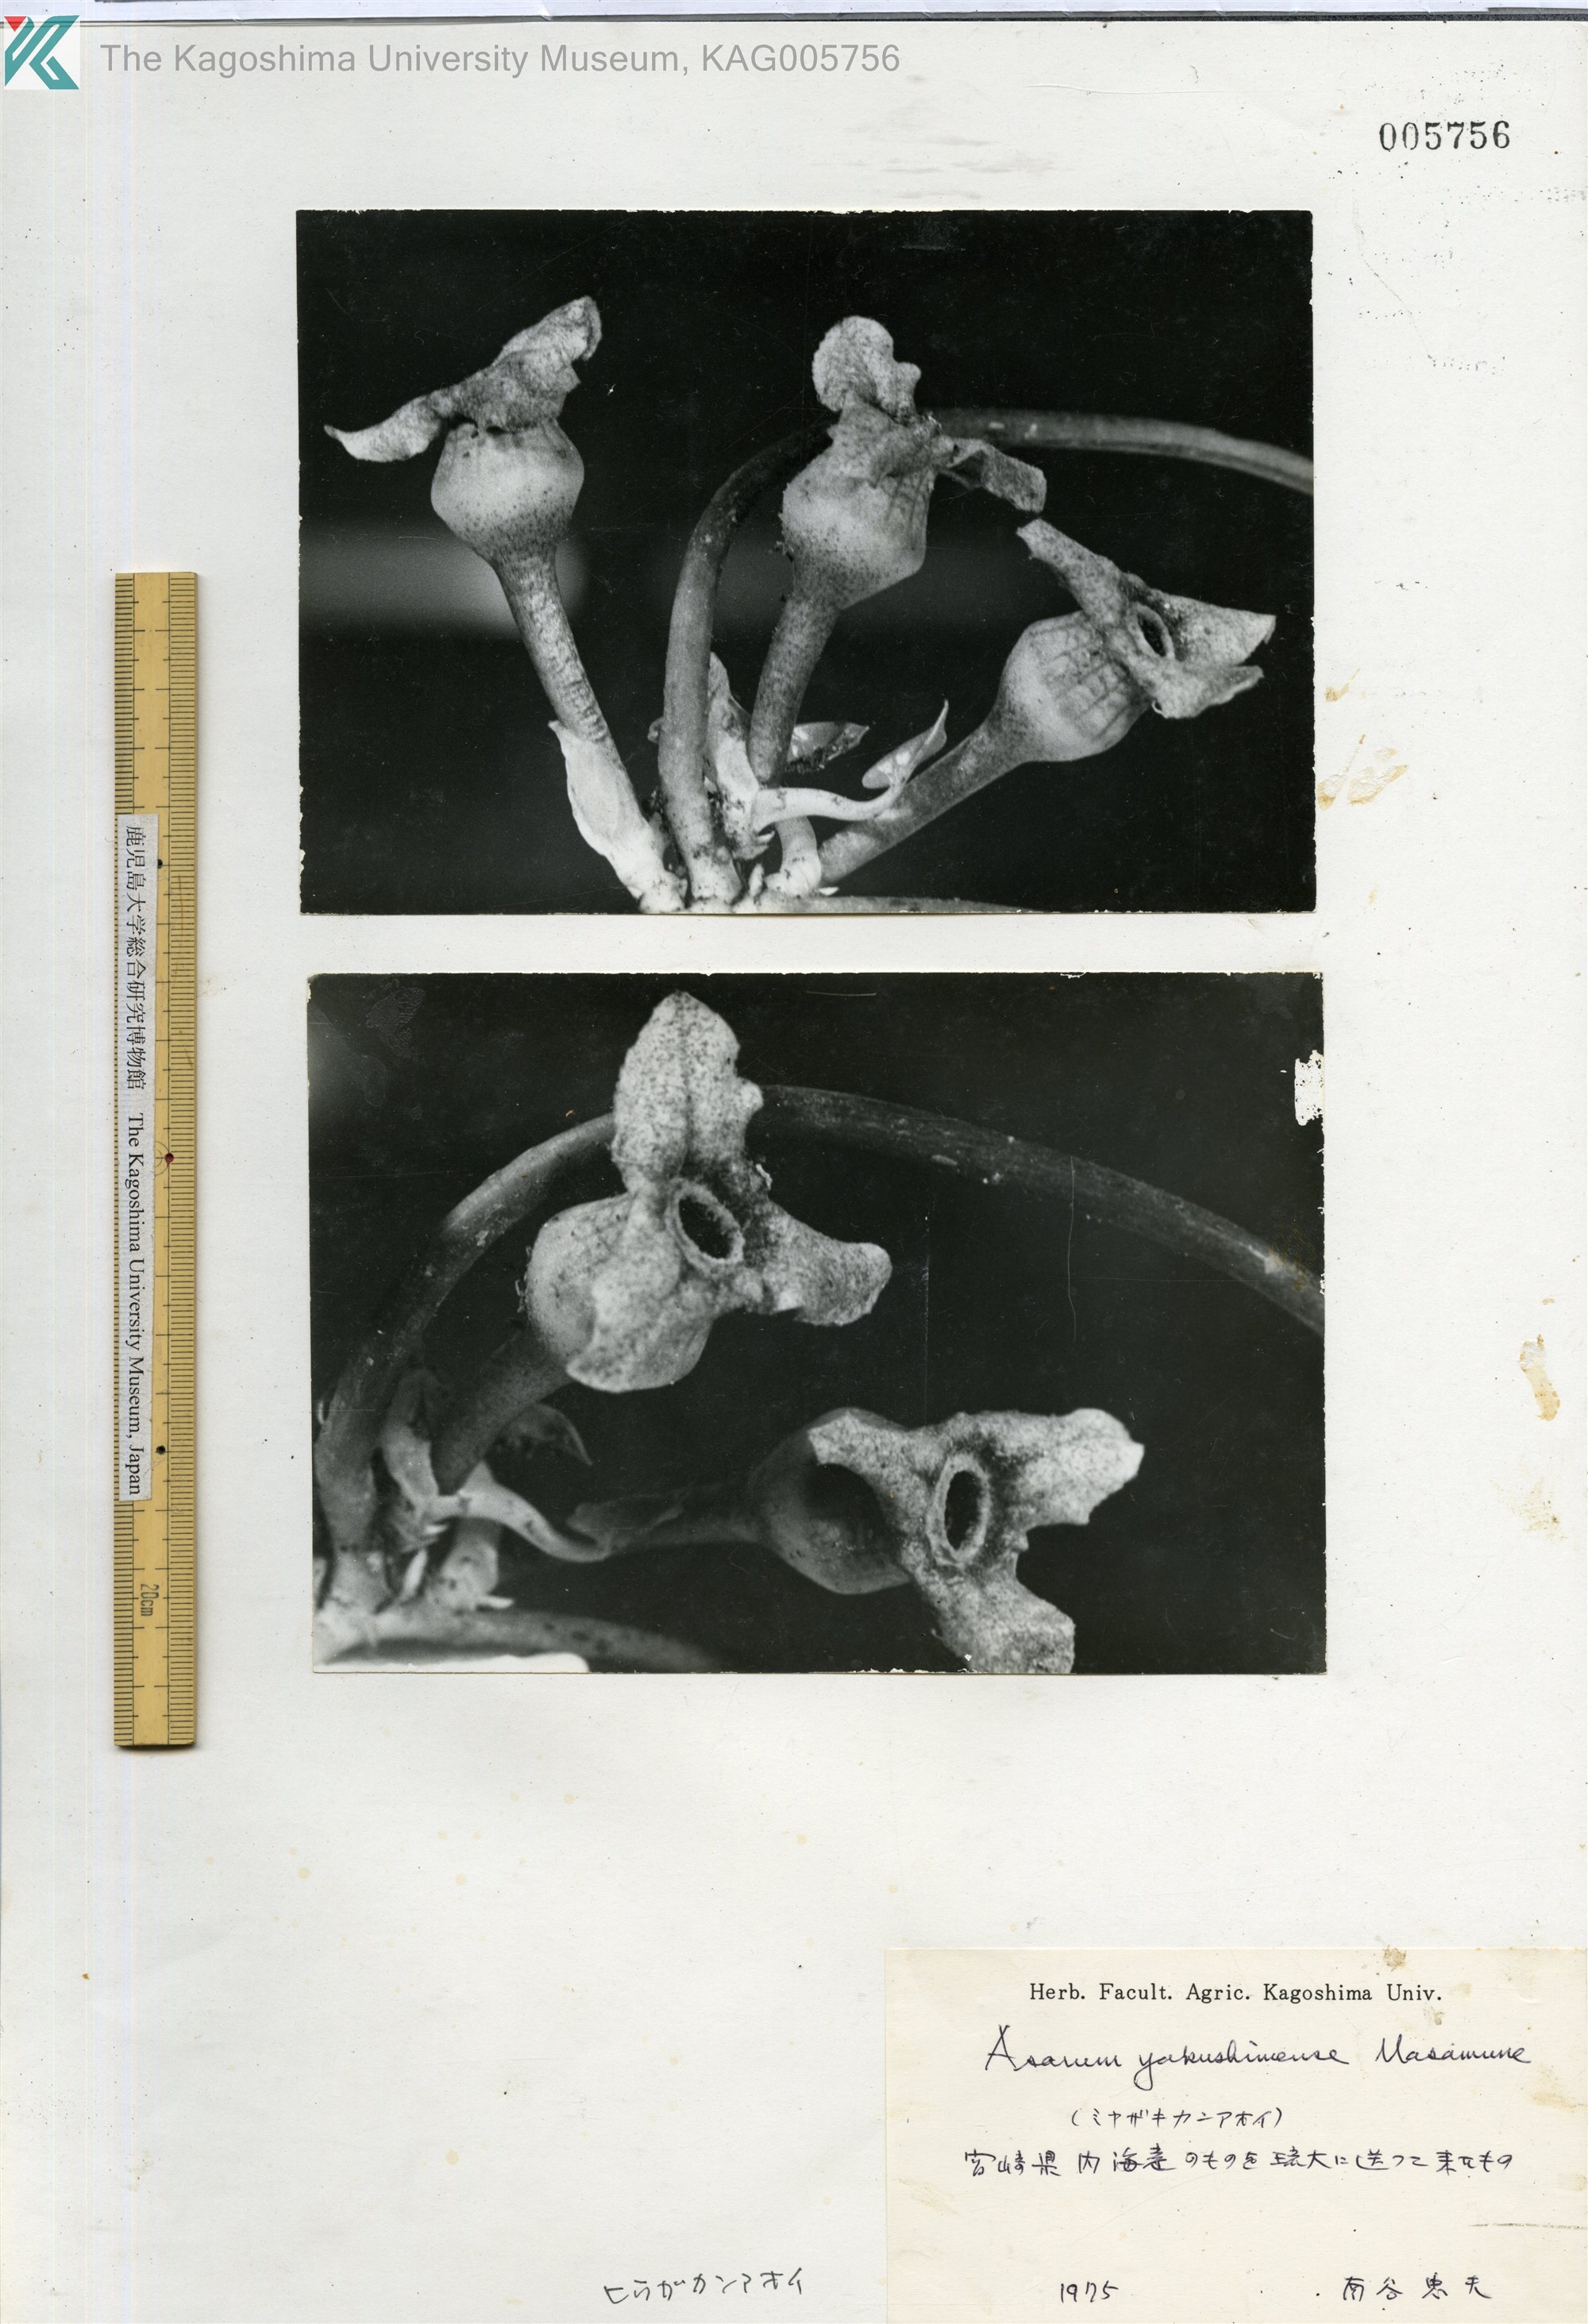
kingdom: Plantae
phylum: Tracheophyta
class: Magnoliopsida
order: Piperales
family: Aristolochiaceae
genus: Asarum
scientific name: Asarum
